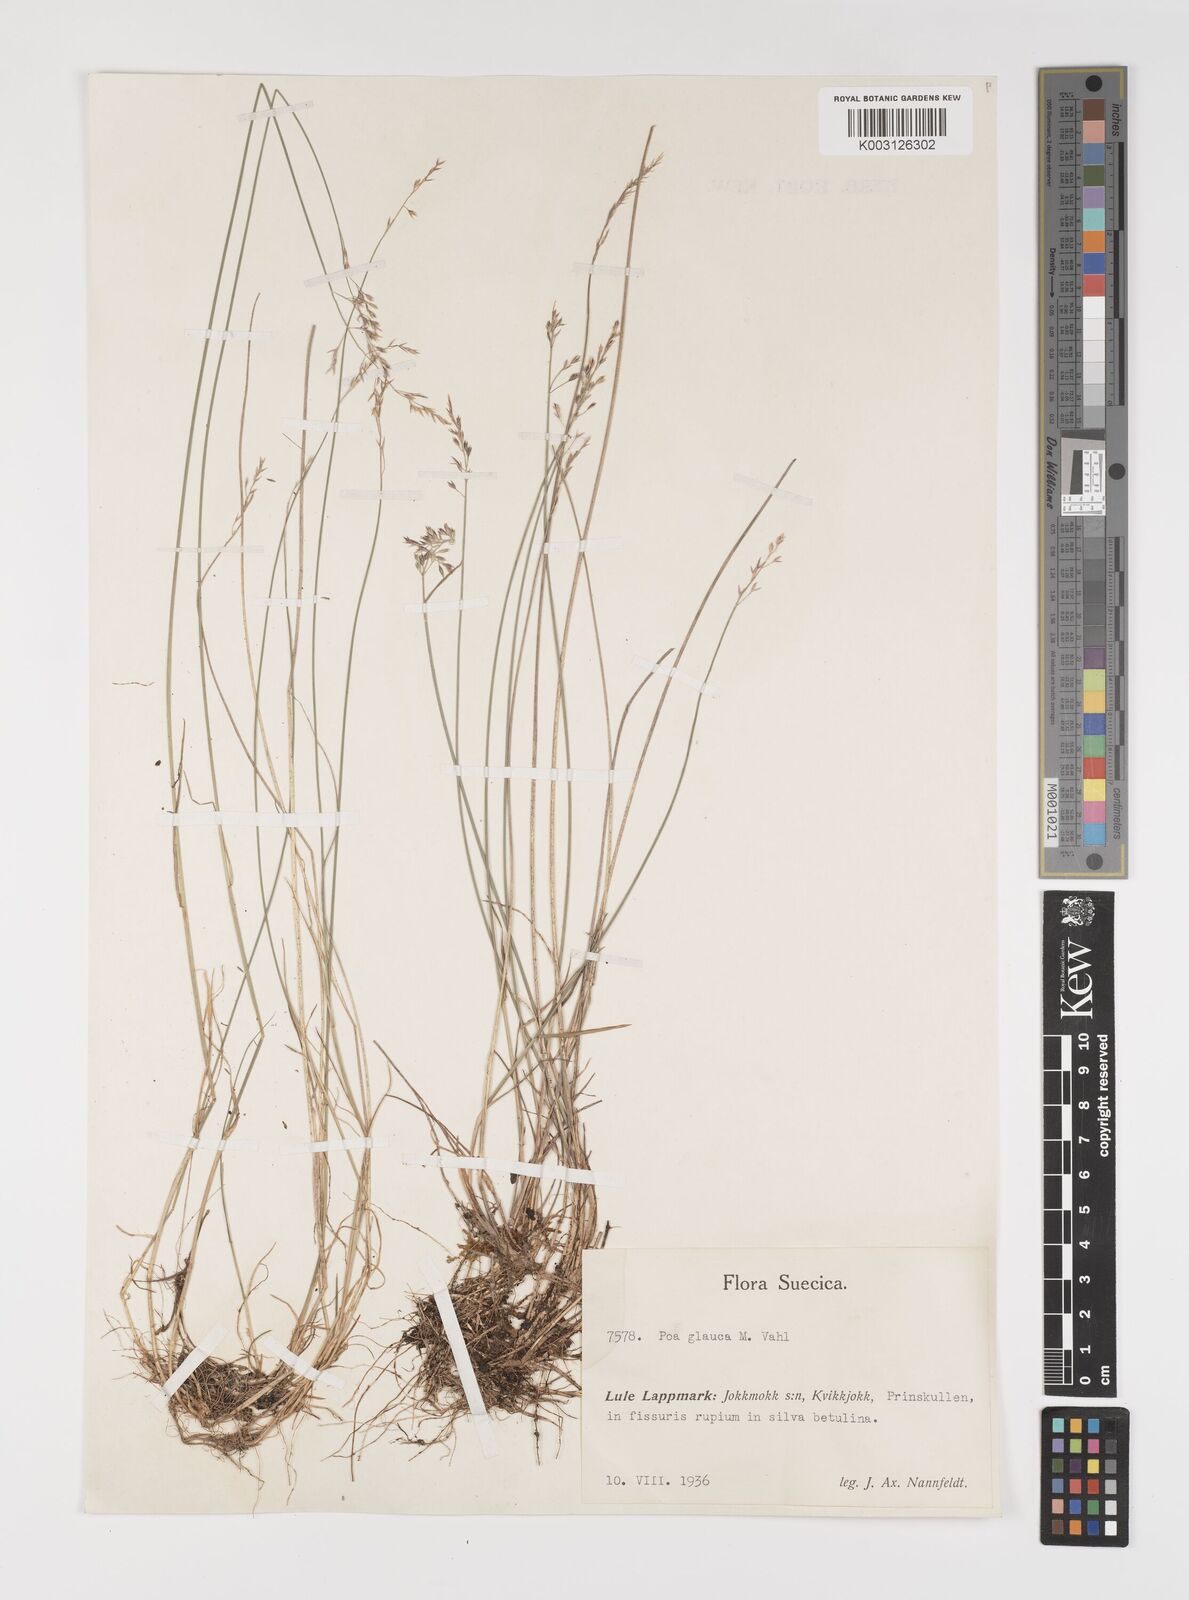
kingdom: Plantae
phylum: Tracheophyta
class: Liliopsida
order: Poales
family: Poaceae
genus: Poa
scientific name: Poa glauca
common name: Glaucous bluegrass
